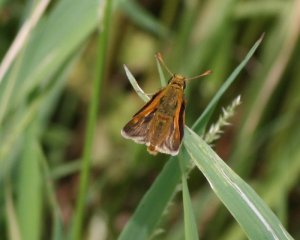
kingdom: Animalia
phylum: Arthropoda
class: Insecta
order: Lepidoptera
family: Hesperiidae
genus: Polites
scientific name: Polites themistocles
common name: Tawny-edged Skipper
